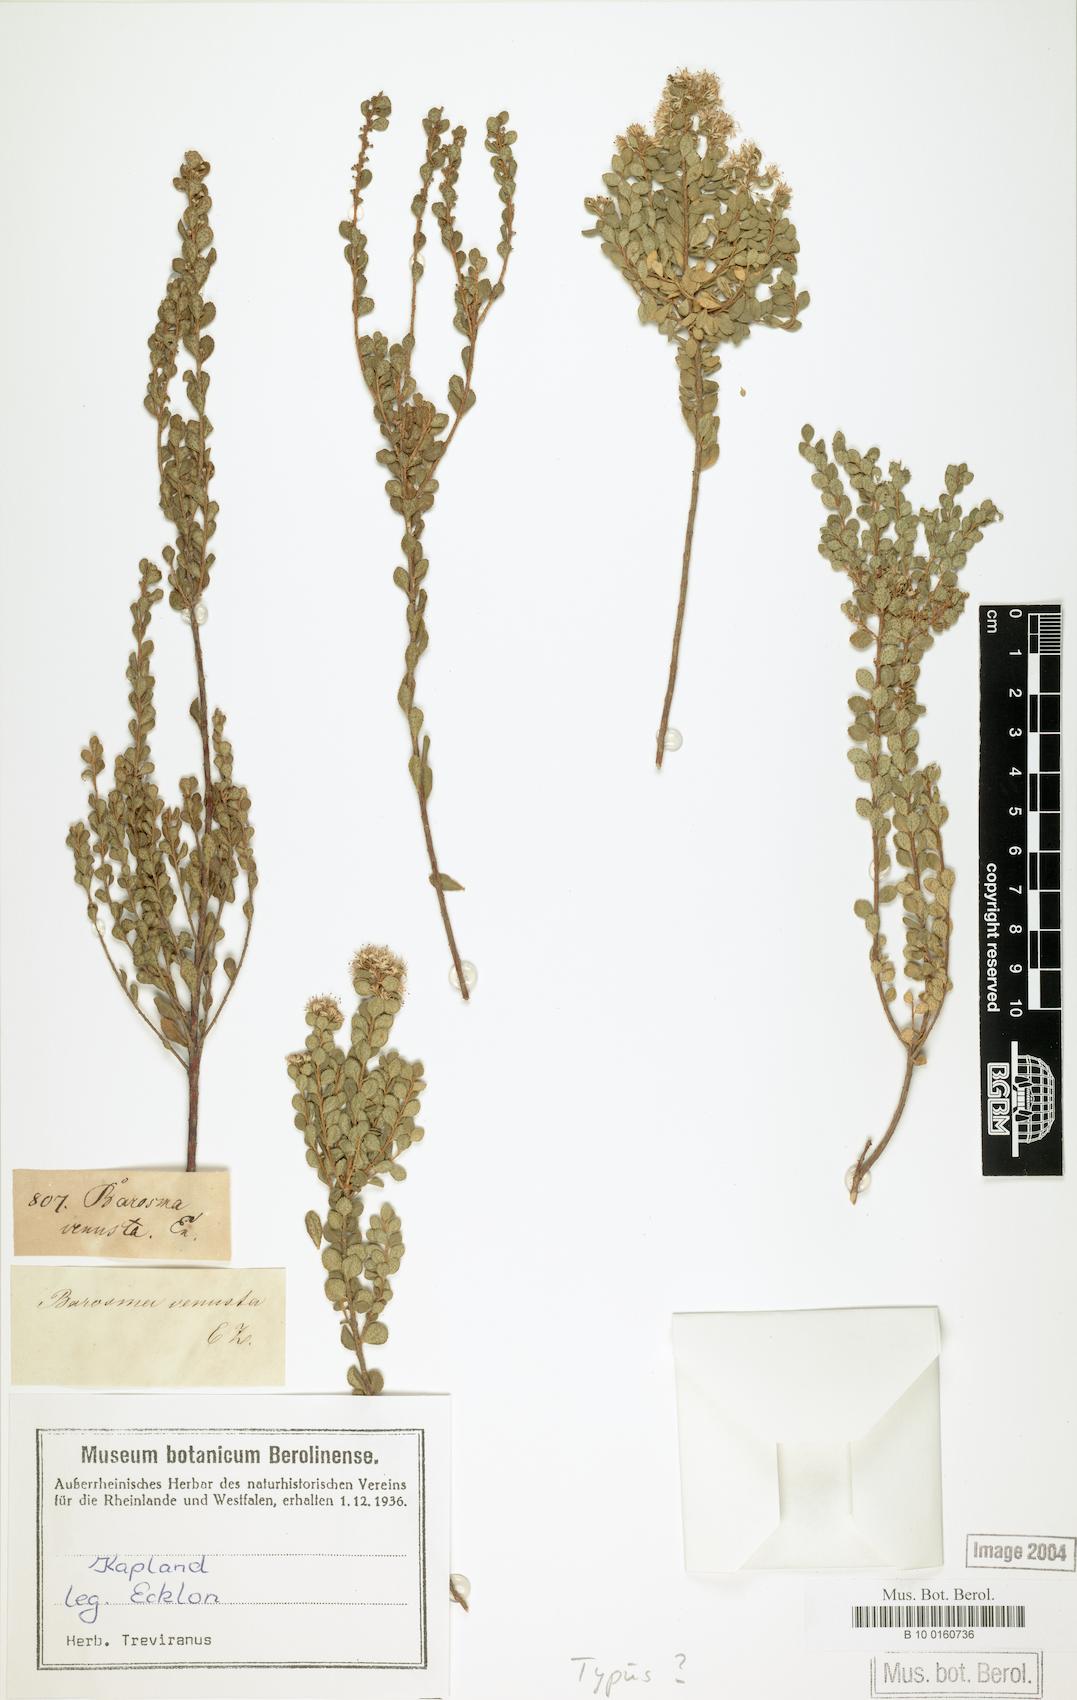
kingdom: Plantae
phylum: Tracheophyta
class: Magnoliopsida
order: Sapindales
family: Rutaceae
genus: Agathosma
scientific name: Agathosma venusta
